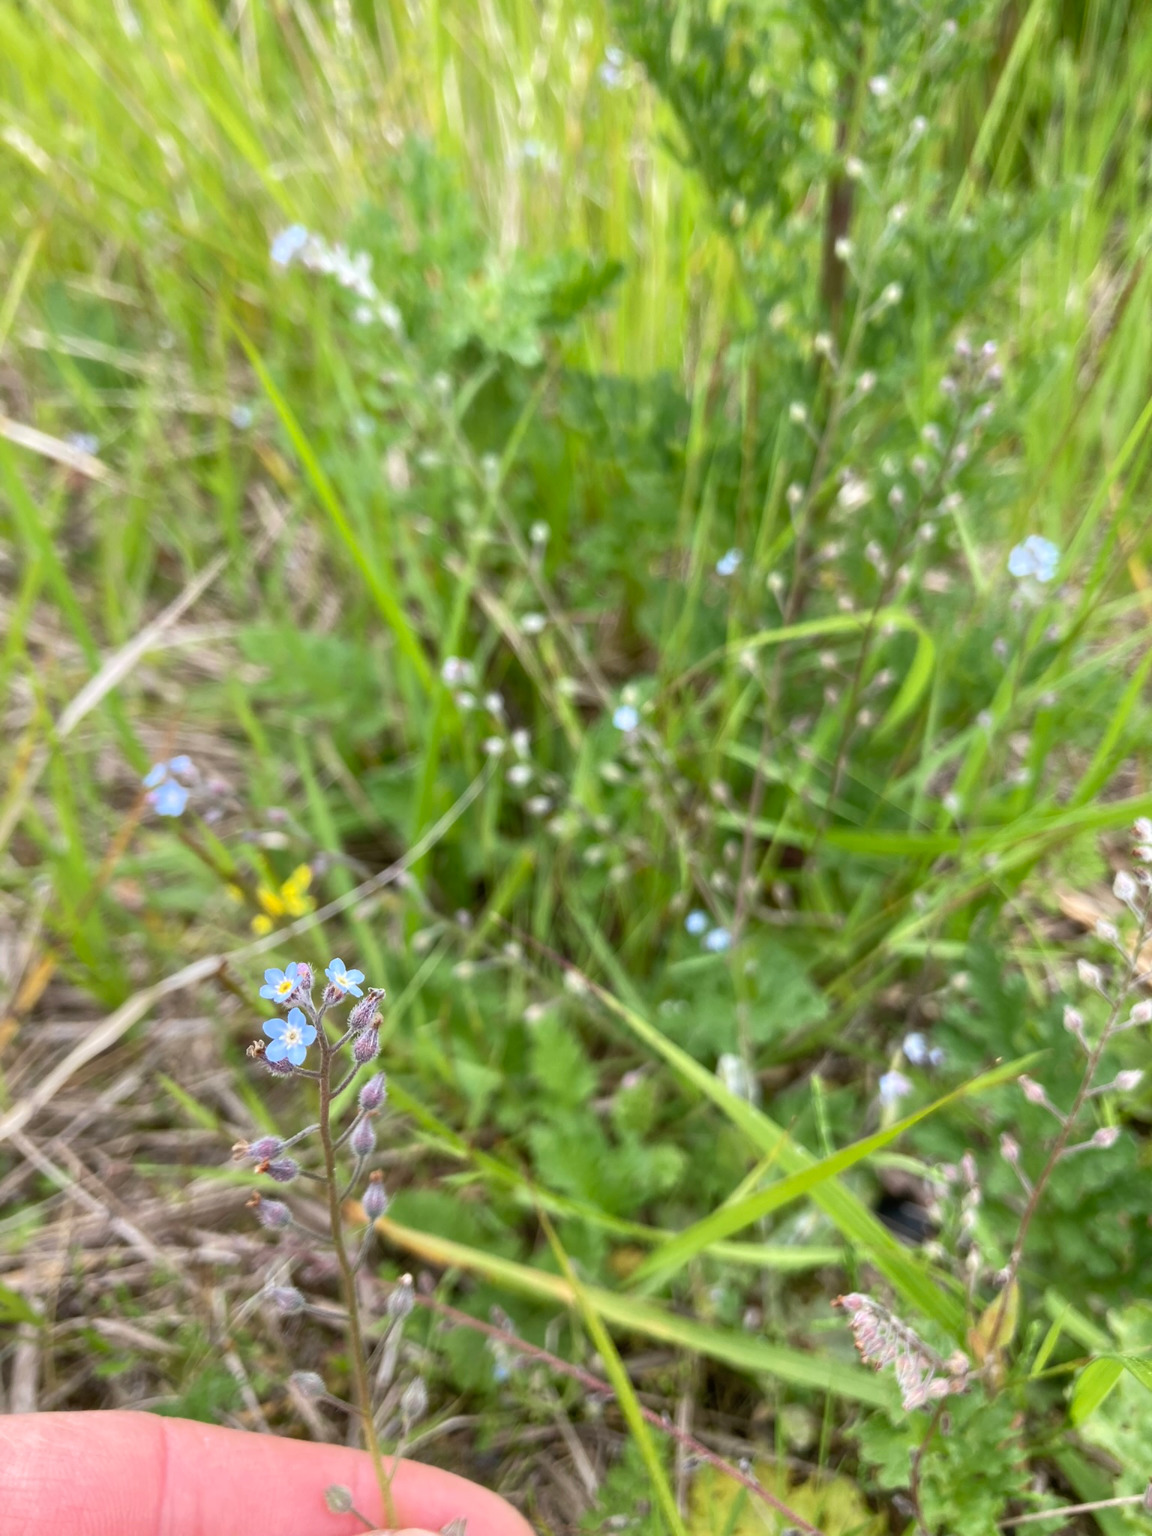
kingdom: Plantae
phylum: Tracheophyta
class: Magnoliopsida
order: Boraginales
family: Boraginaceae
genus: Myosotis
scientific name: Myosotis arvensis
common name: Mark-forglemmigej
